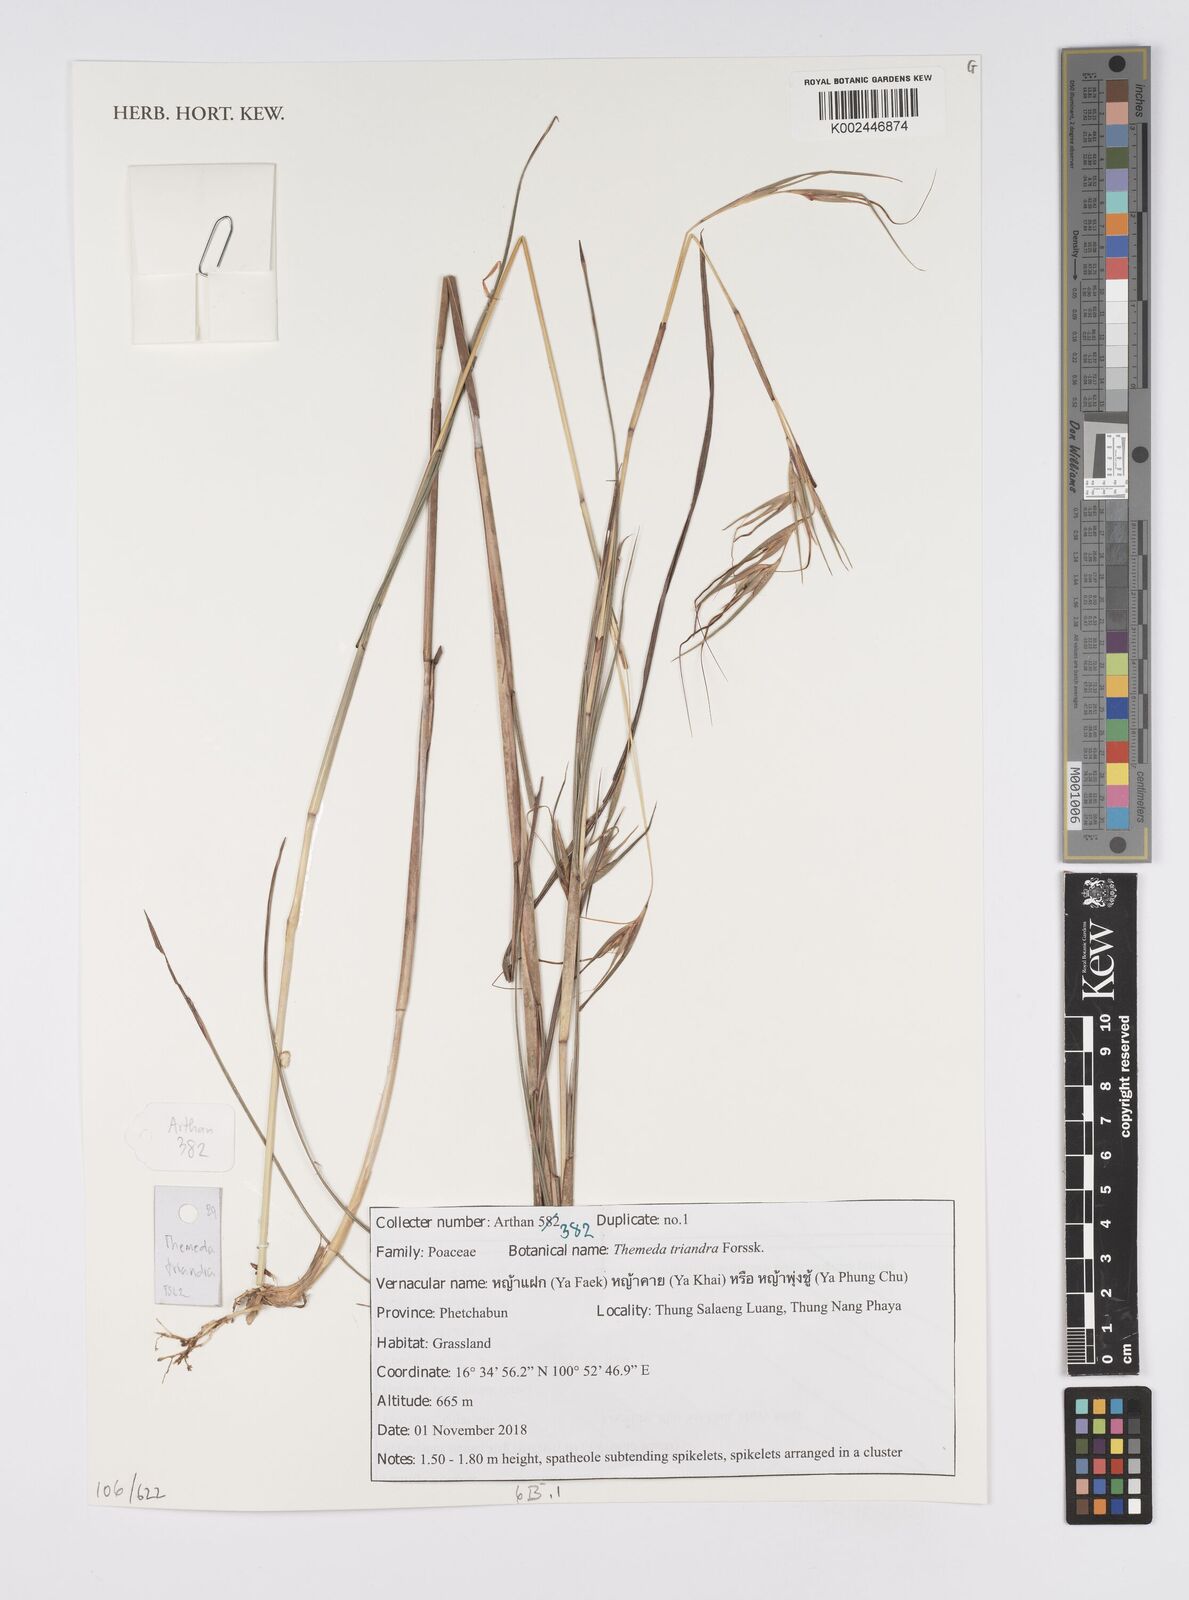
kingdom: Plantae
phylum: Tracheophyta
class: Liliopsida
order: Poales
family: Poaceae
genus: Themeda
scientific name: Themeda triandra
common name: Kangaroo grass
